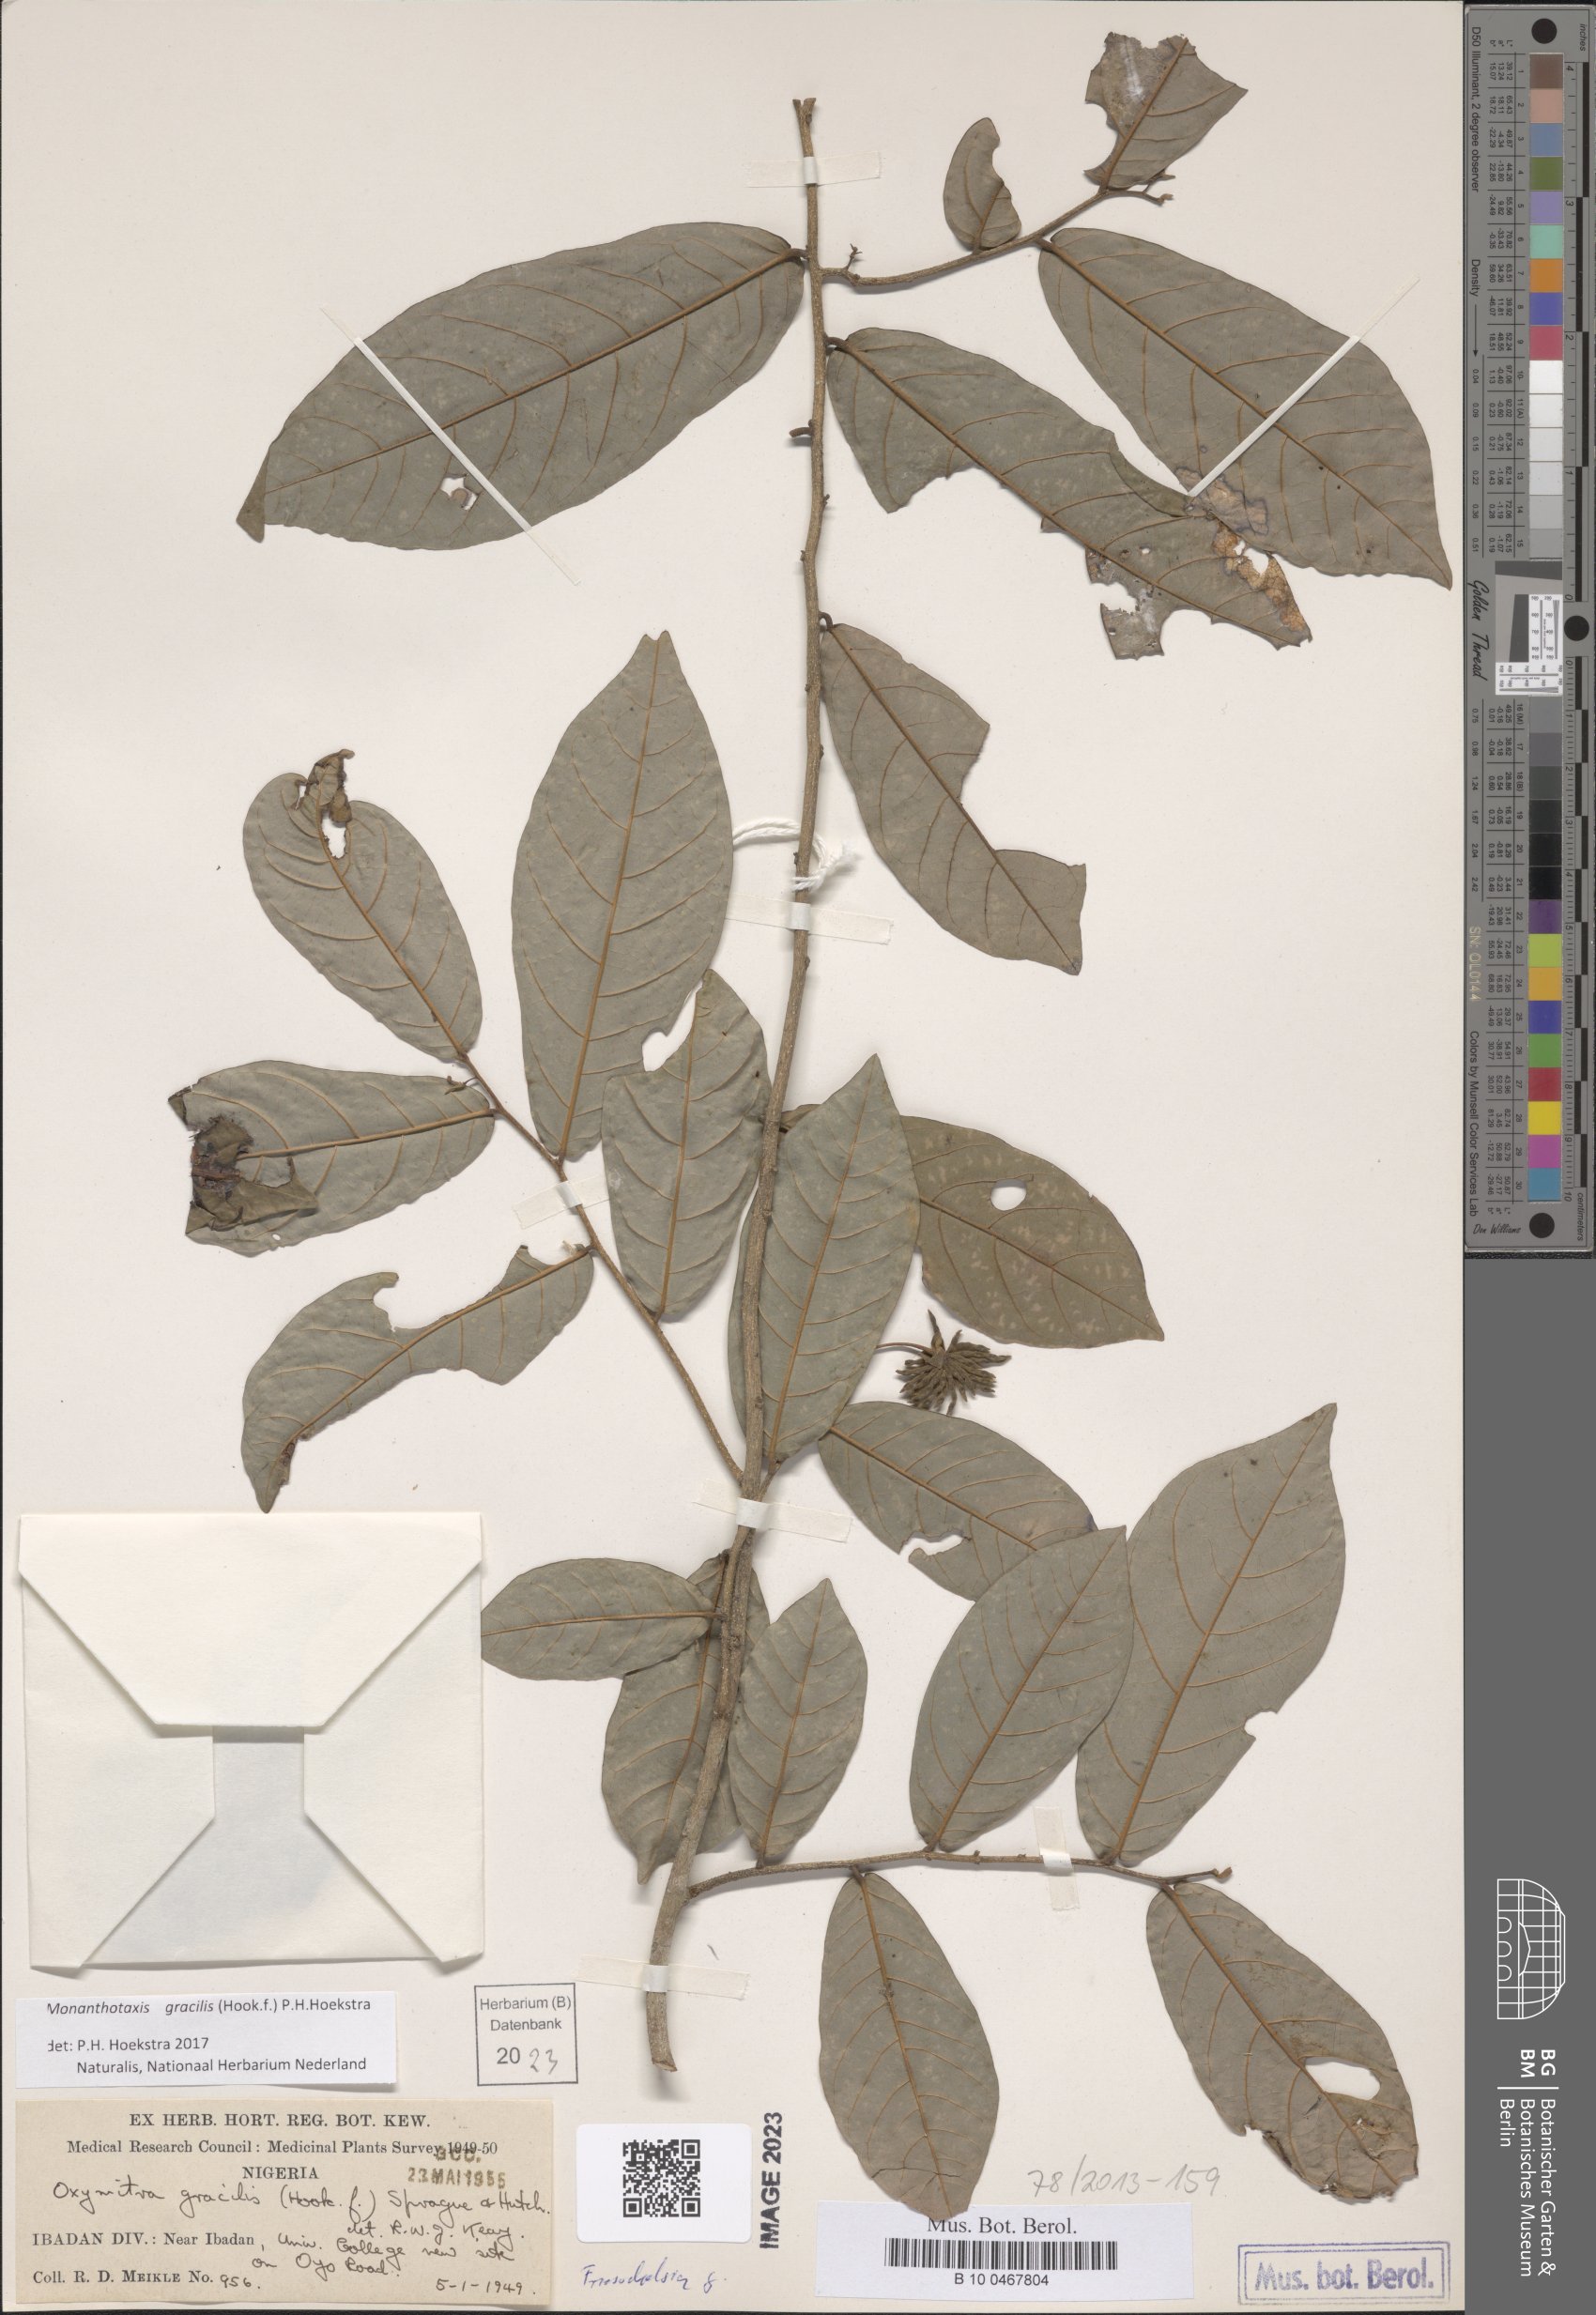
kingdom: Plantae
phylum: Tracheophyta
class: Magnoliopsida
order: Magnoliales
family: Annonaceae
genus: Friesodielsia
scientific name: Friesodielsia gracilis
